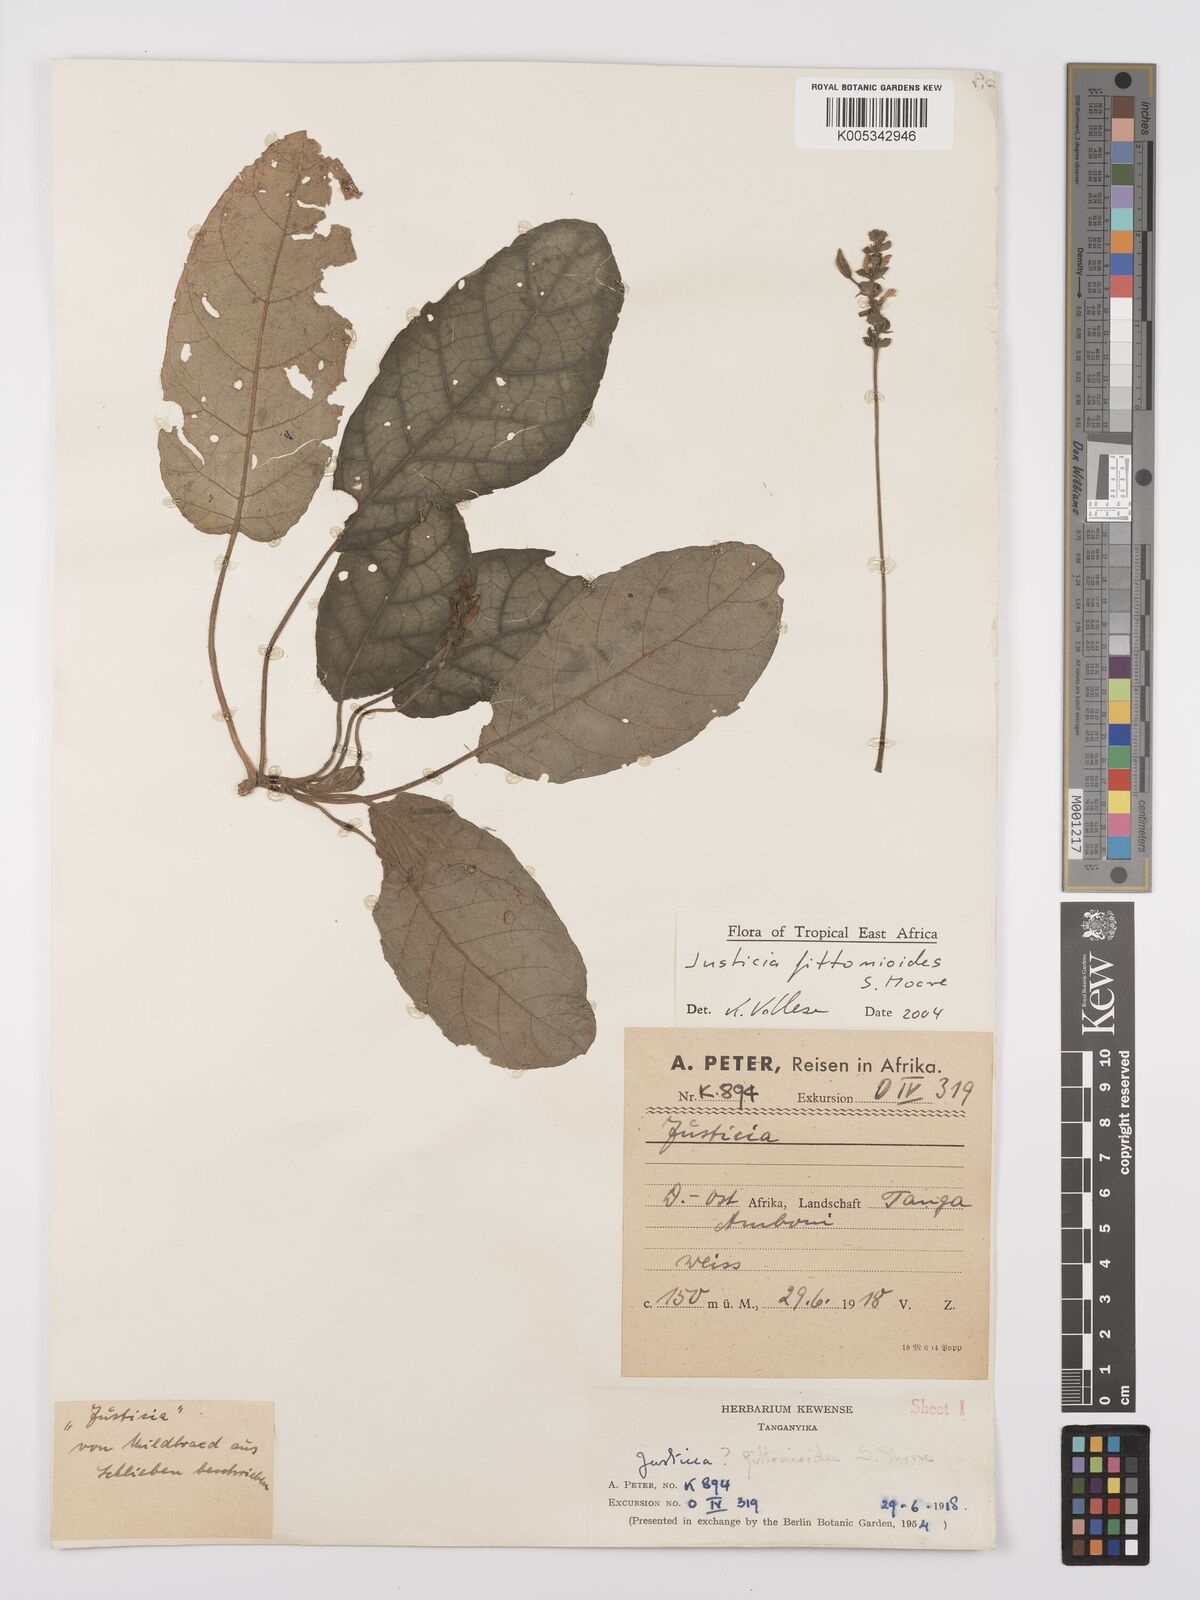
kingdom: Plantae
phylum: Tracheophyta
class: Magnoliopsida
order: Lamiales
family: Acanthaceae
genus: Justicia
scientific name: Justicia
